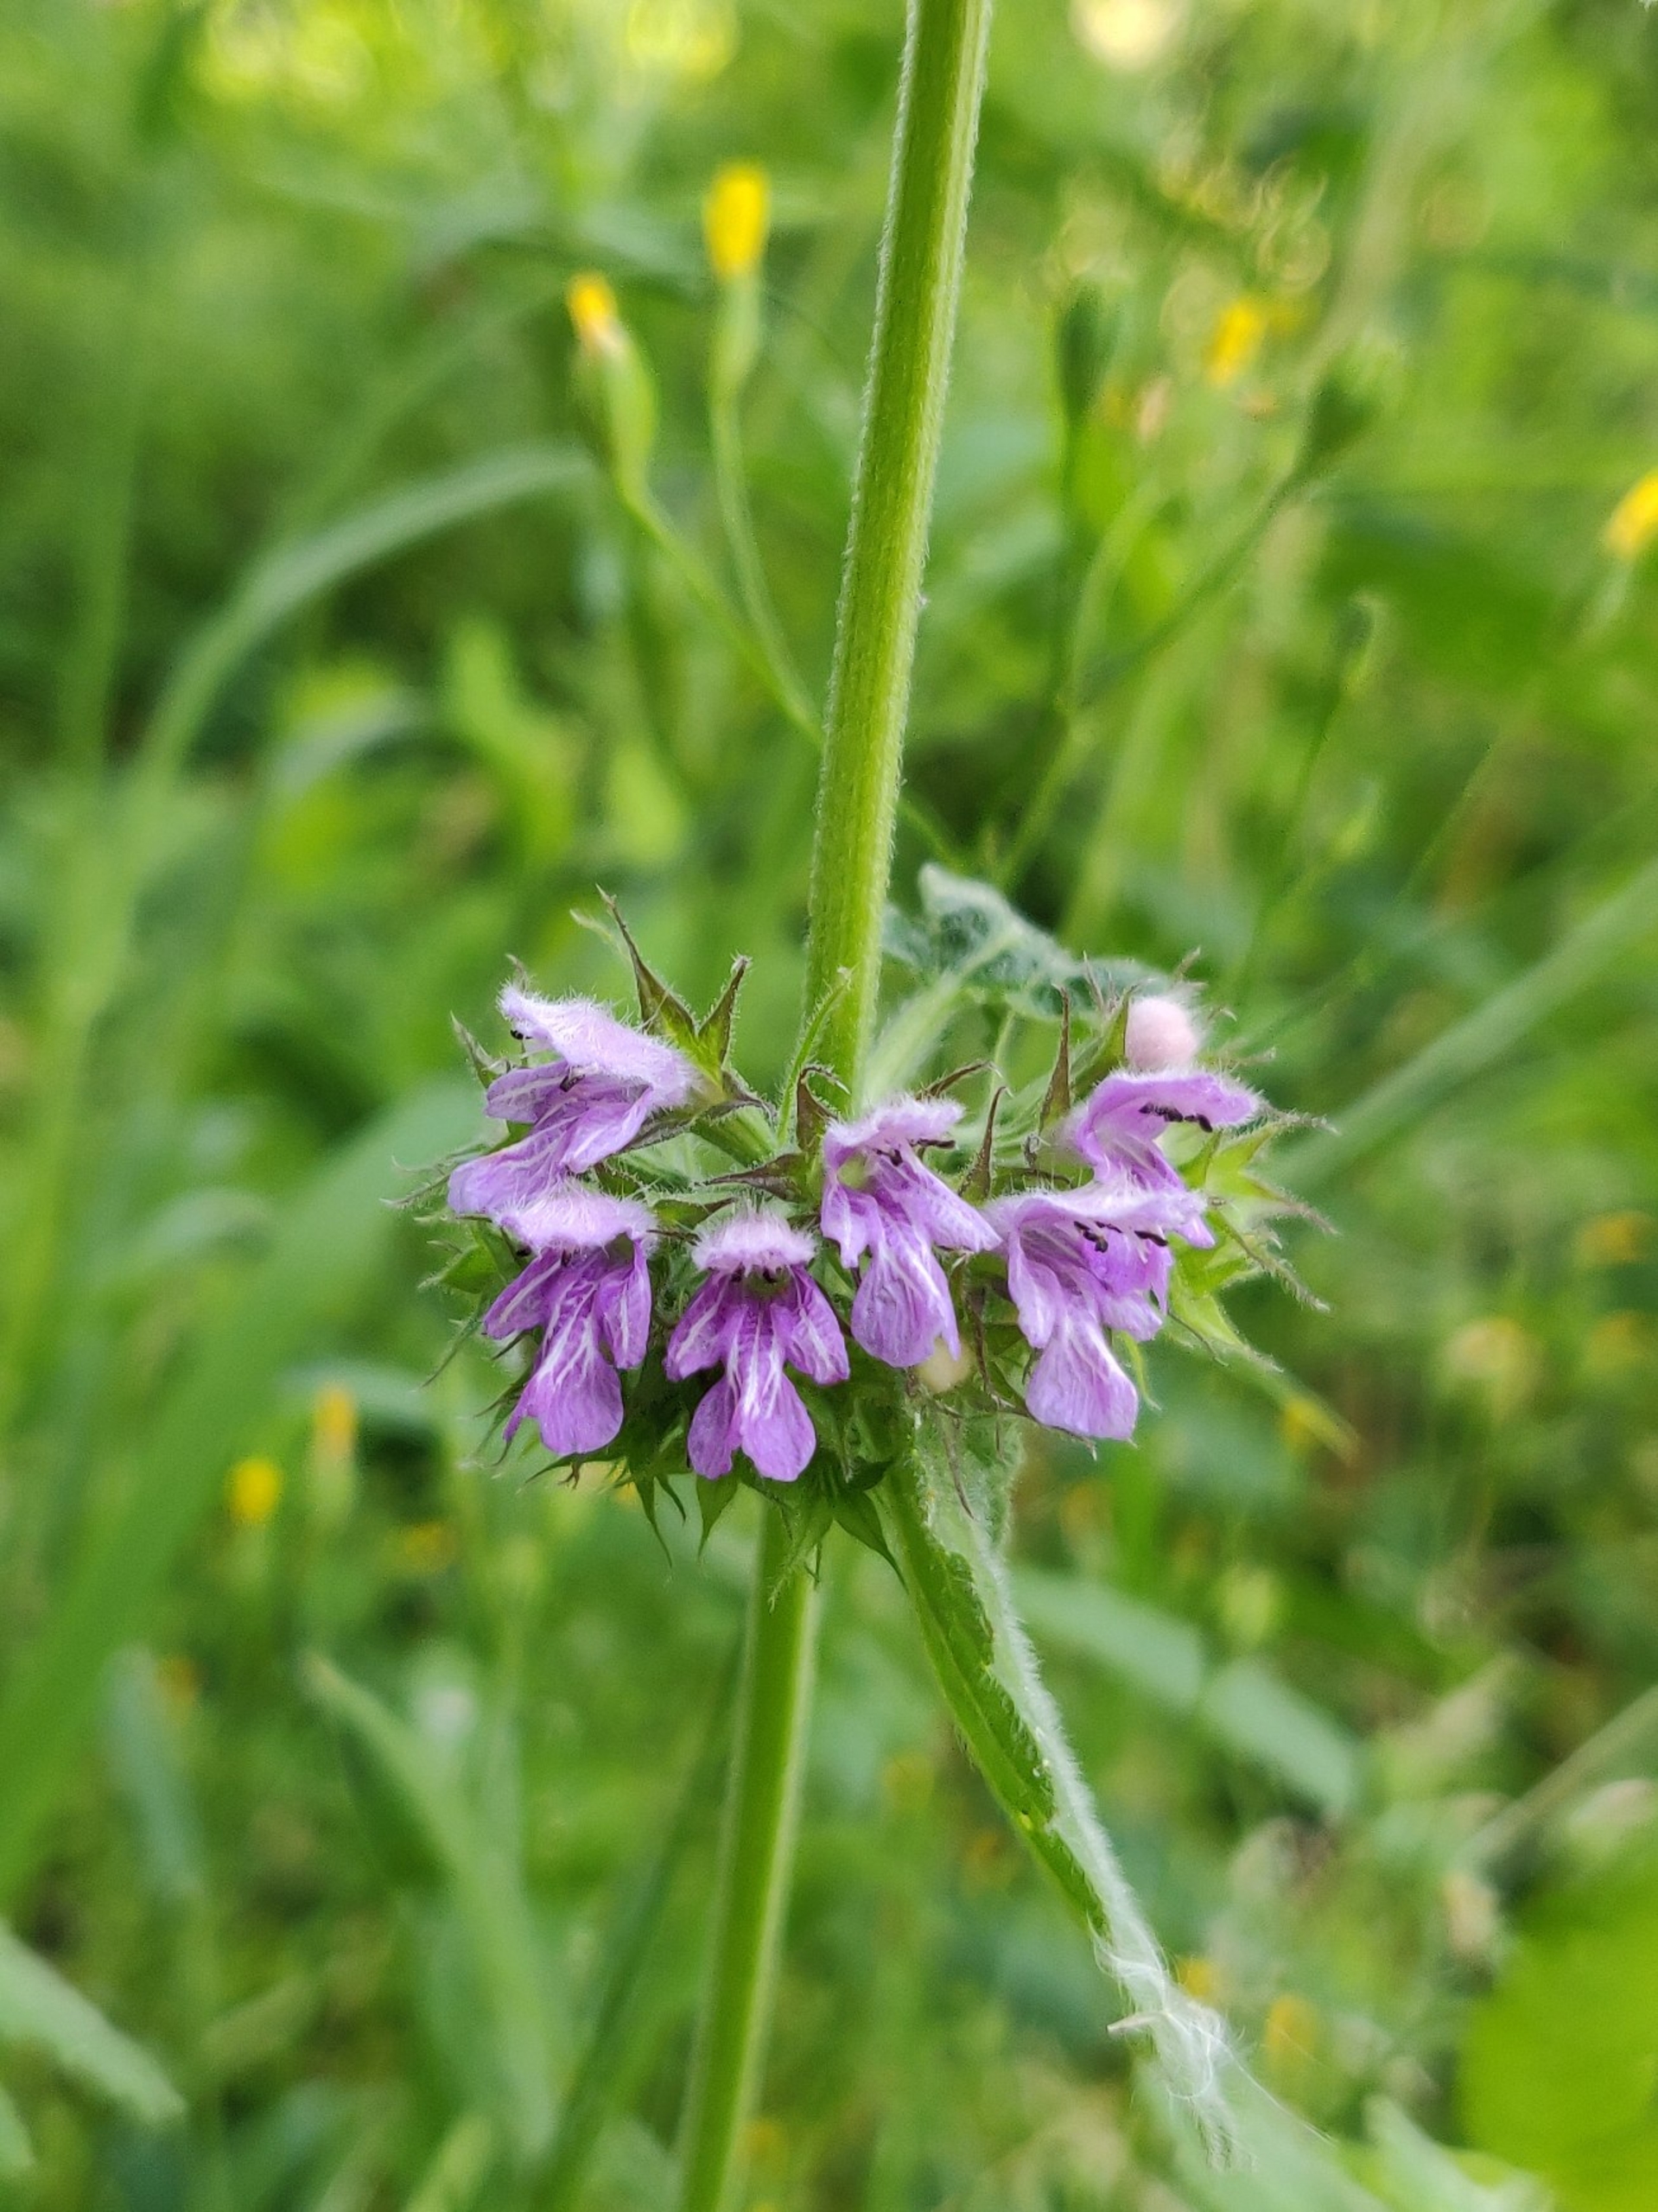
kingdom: Plantae
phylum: Tracheophyta
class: Magnoliopsida
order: Lamiales
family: Lamiaceae
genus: Ballota
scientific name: Ballota nigra
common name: Rød tandbæger
